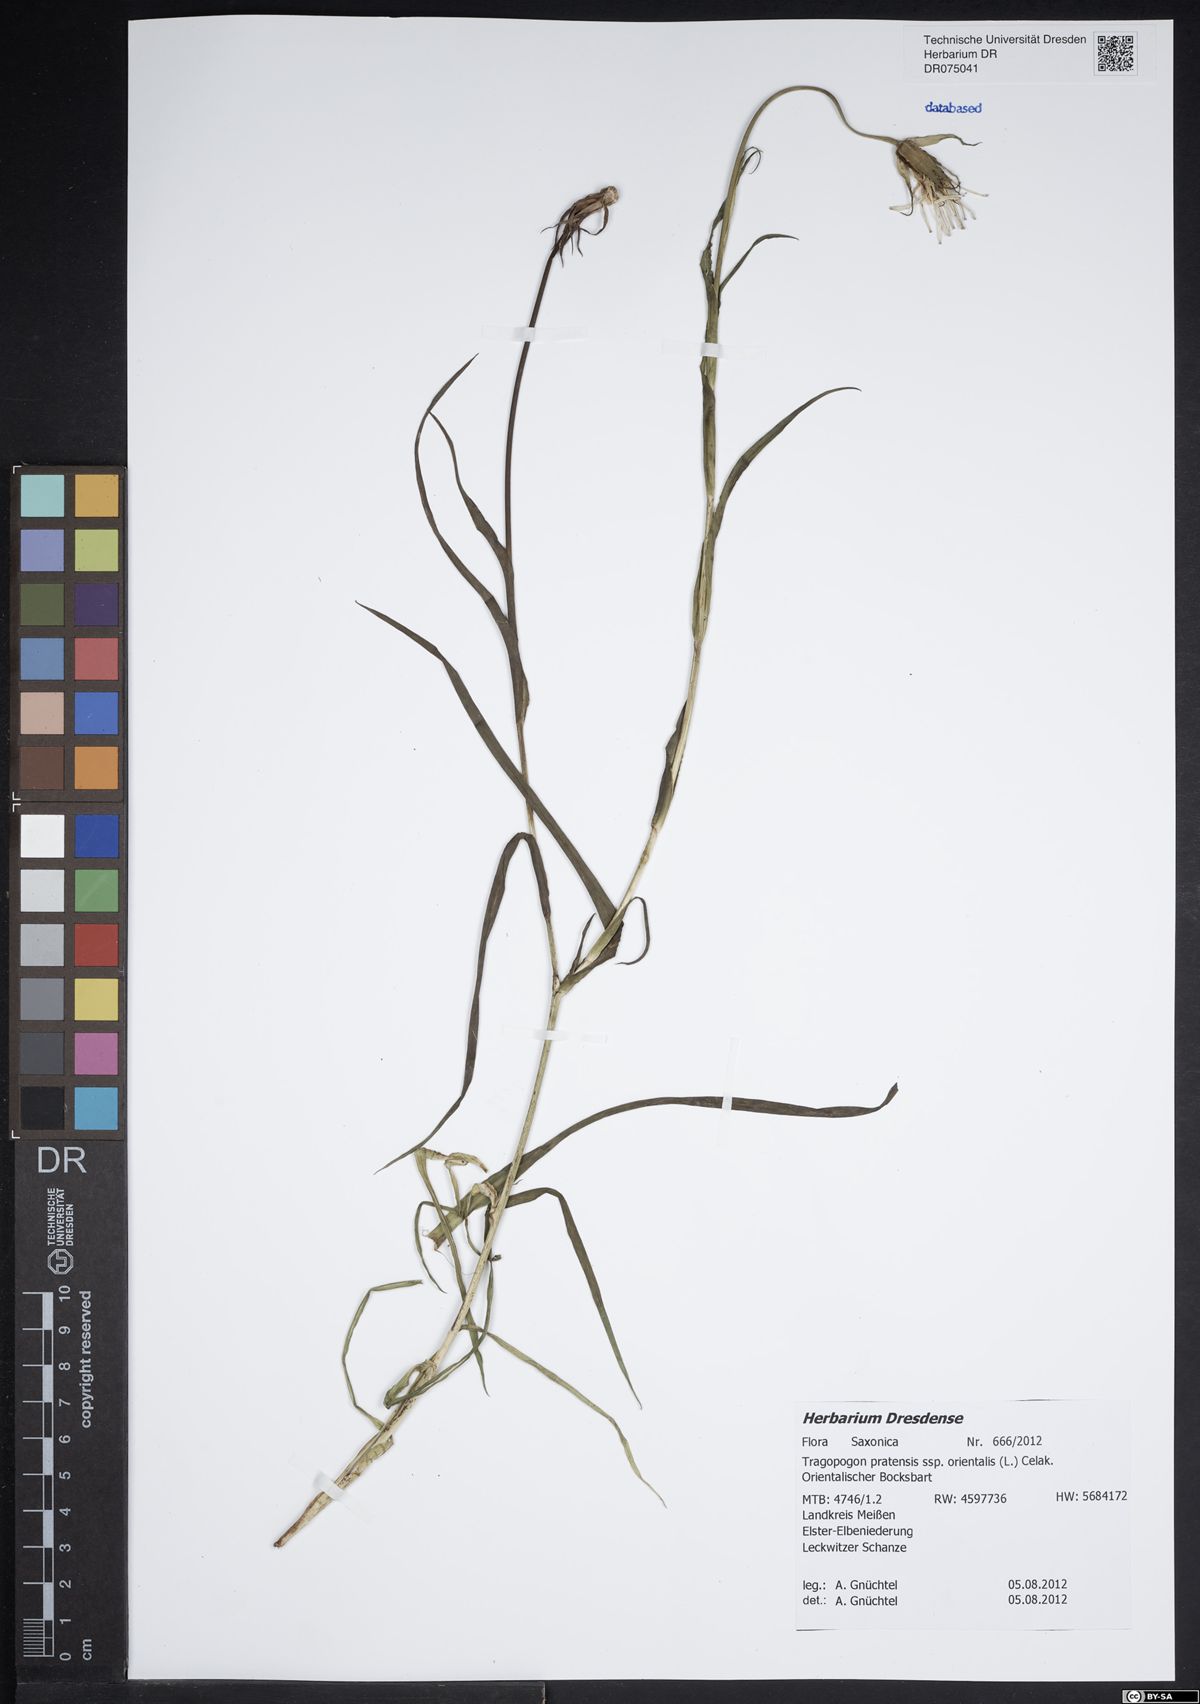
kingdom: Plantae
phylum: Tracheophyta
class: Magnoliopsida
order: Asterales
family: Asteraceae
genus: Tragopogon
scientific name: Tragopogon orientalis
